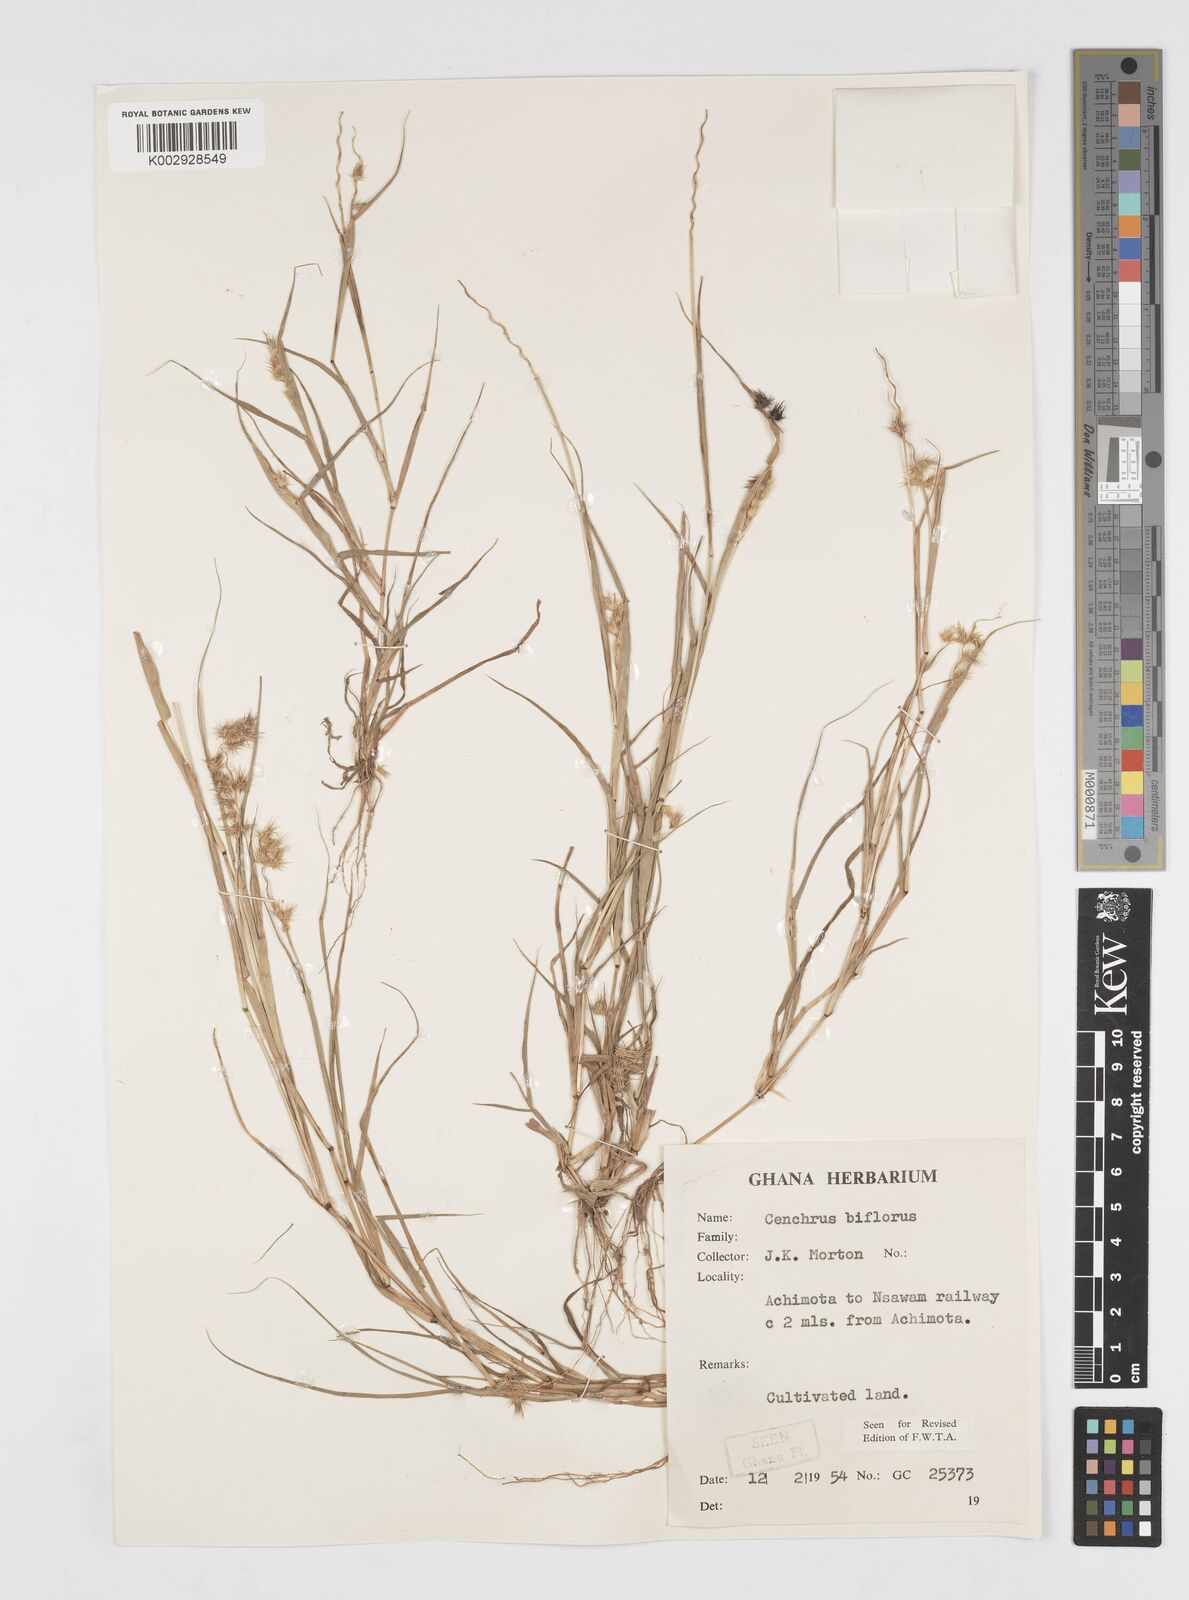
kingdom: Plantae
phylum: Tracheophyta
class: Liliopsida
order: Poales
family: Poaceae
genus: Cenchrus
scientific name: Cenchrus biflorus
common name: Indian sandbur
